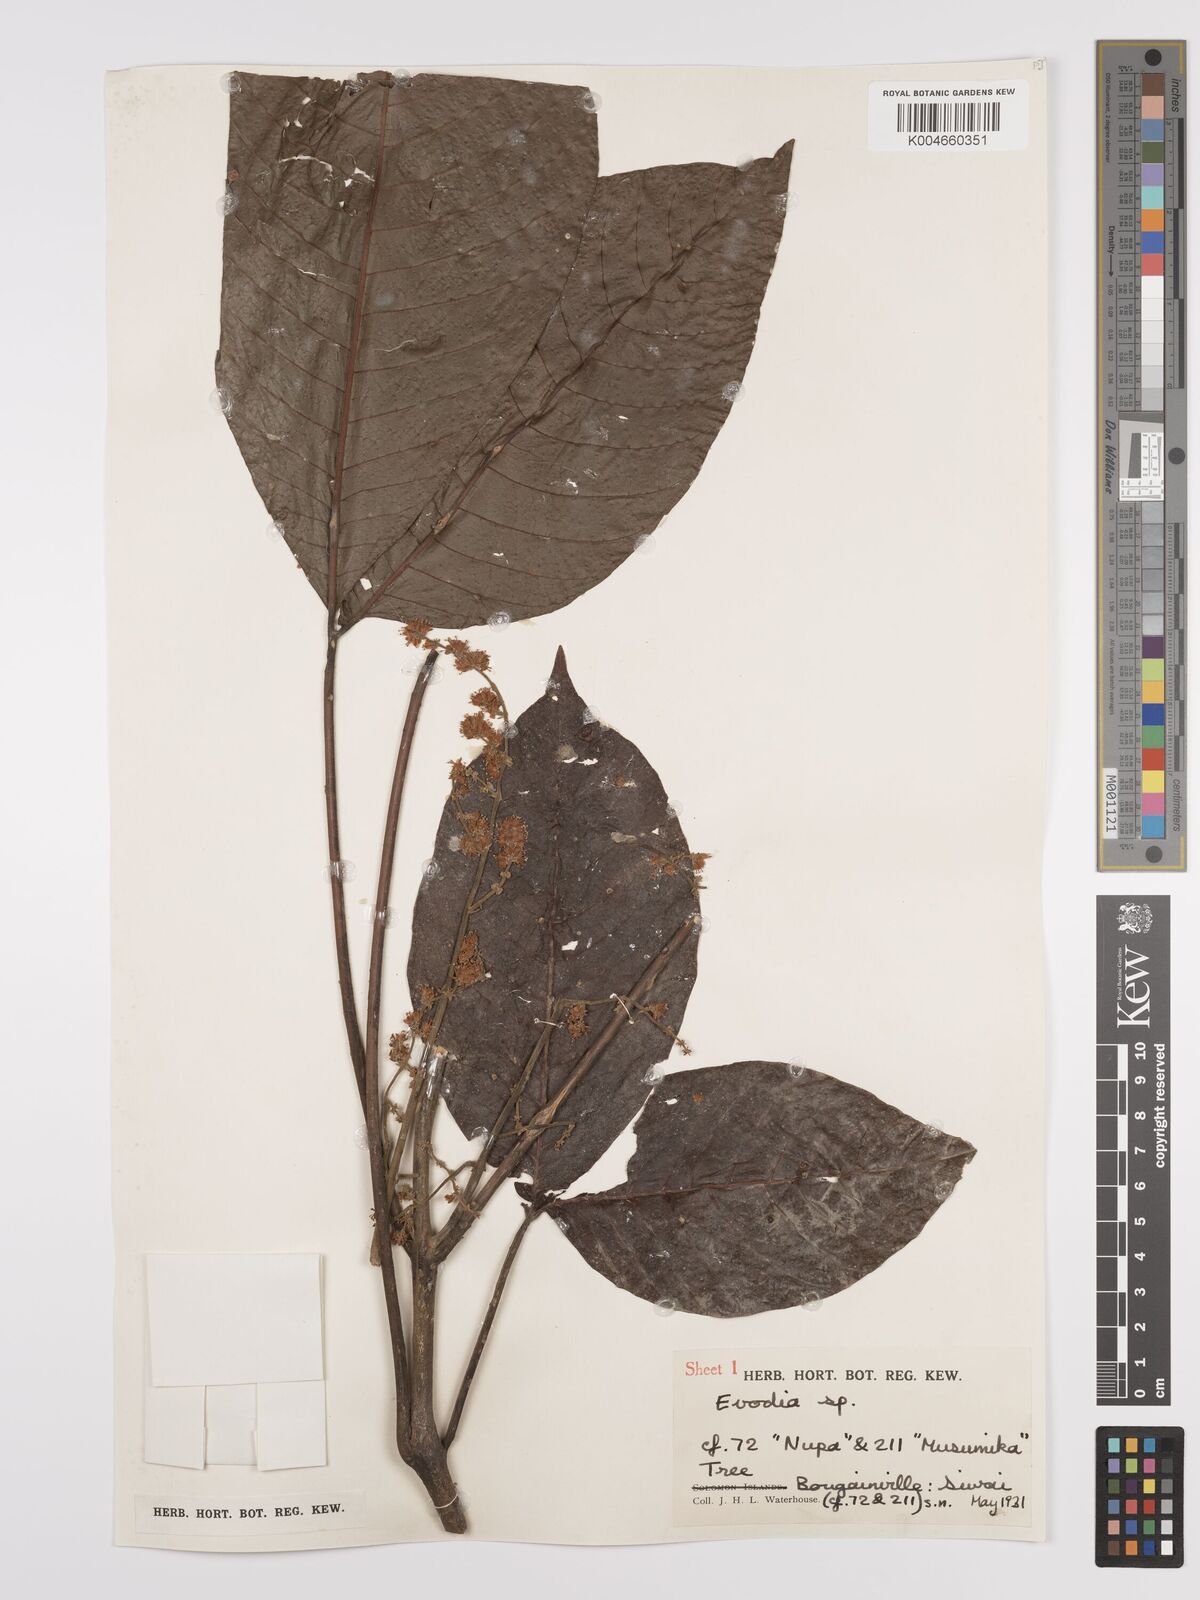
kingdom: Plantae
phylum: Tracheophyta
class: Magnoliopsida
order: Sapindales
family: Rutaceae
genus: Euodia
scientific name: Euodia
